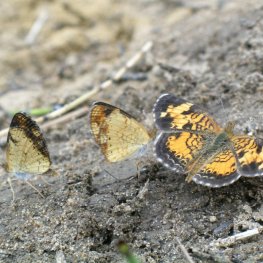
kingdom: Animalia
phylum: Arthropoda
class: Insecta
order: Lepidoptera
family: Nymphalidae
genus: Phyciodes
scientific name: Phyciodes tharos
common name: Northern Crescent
